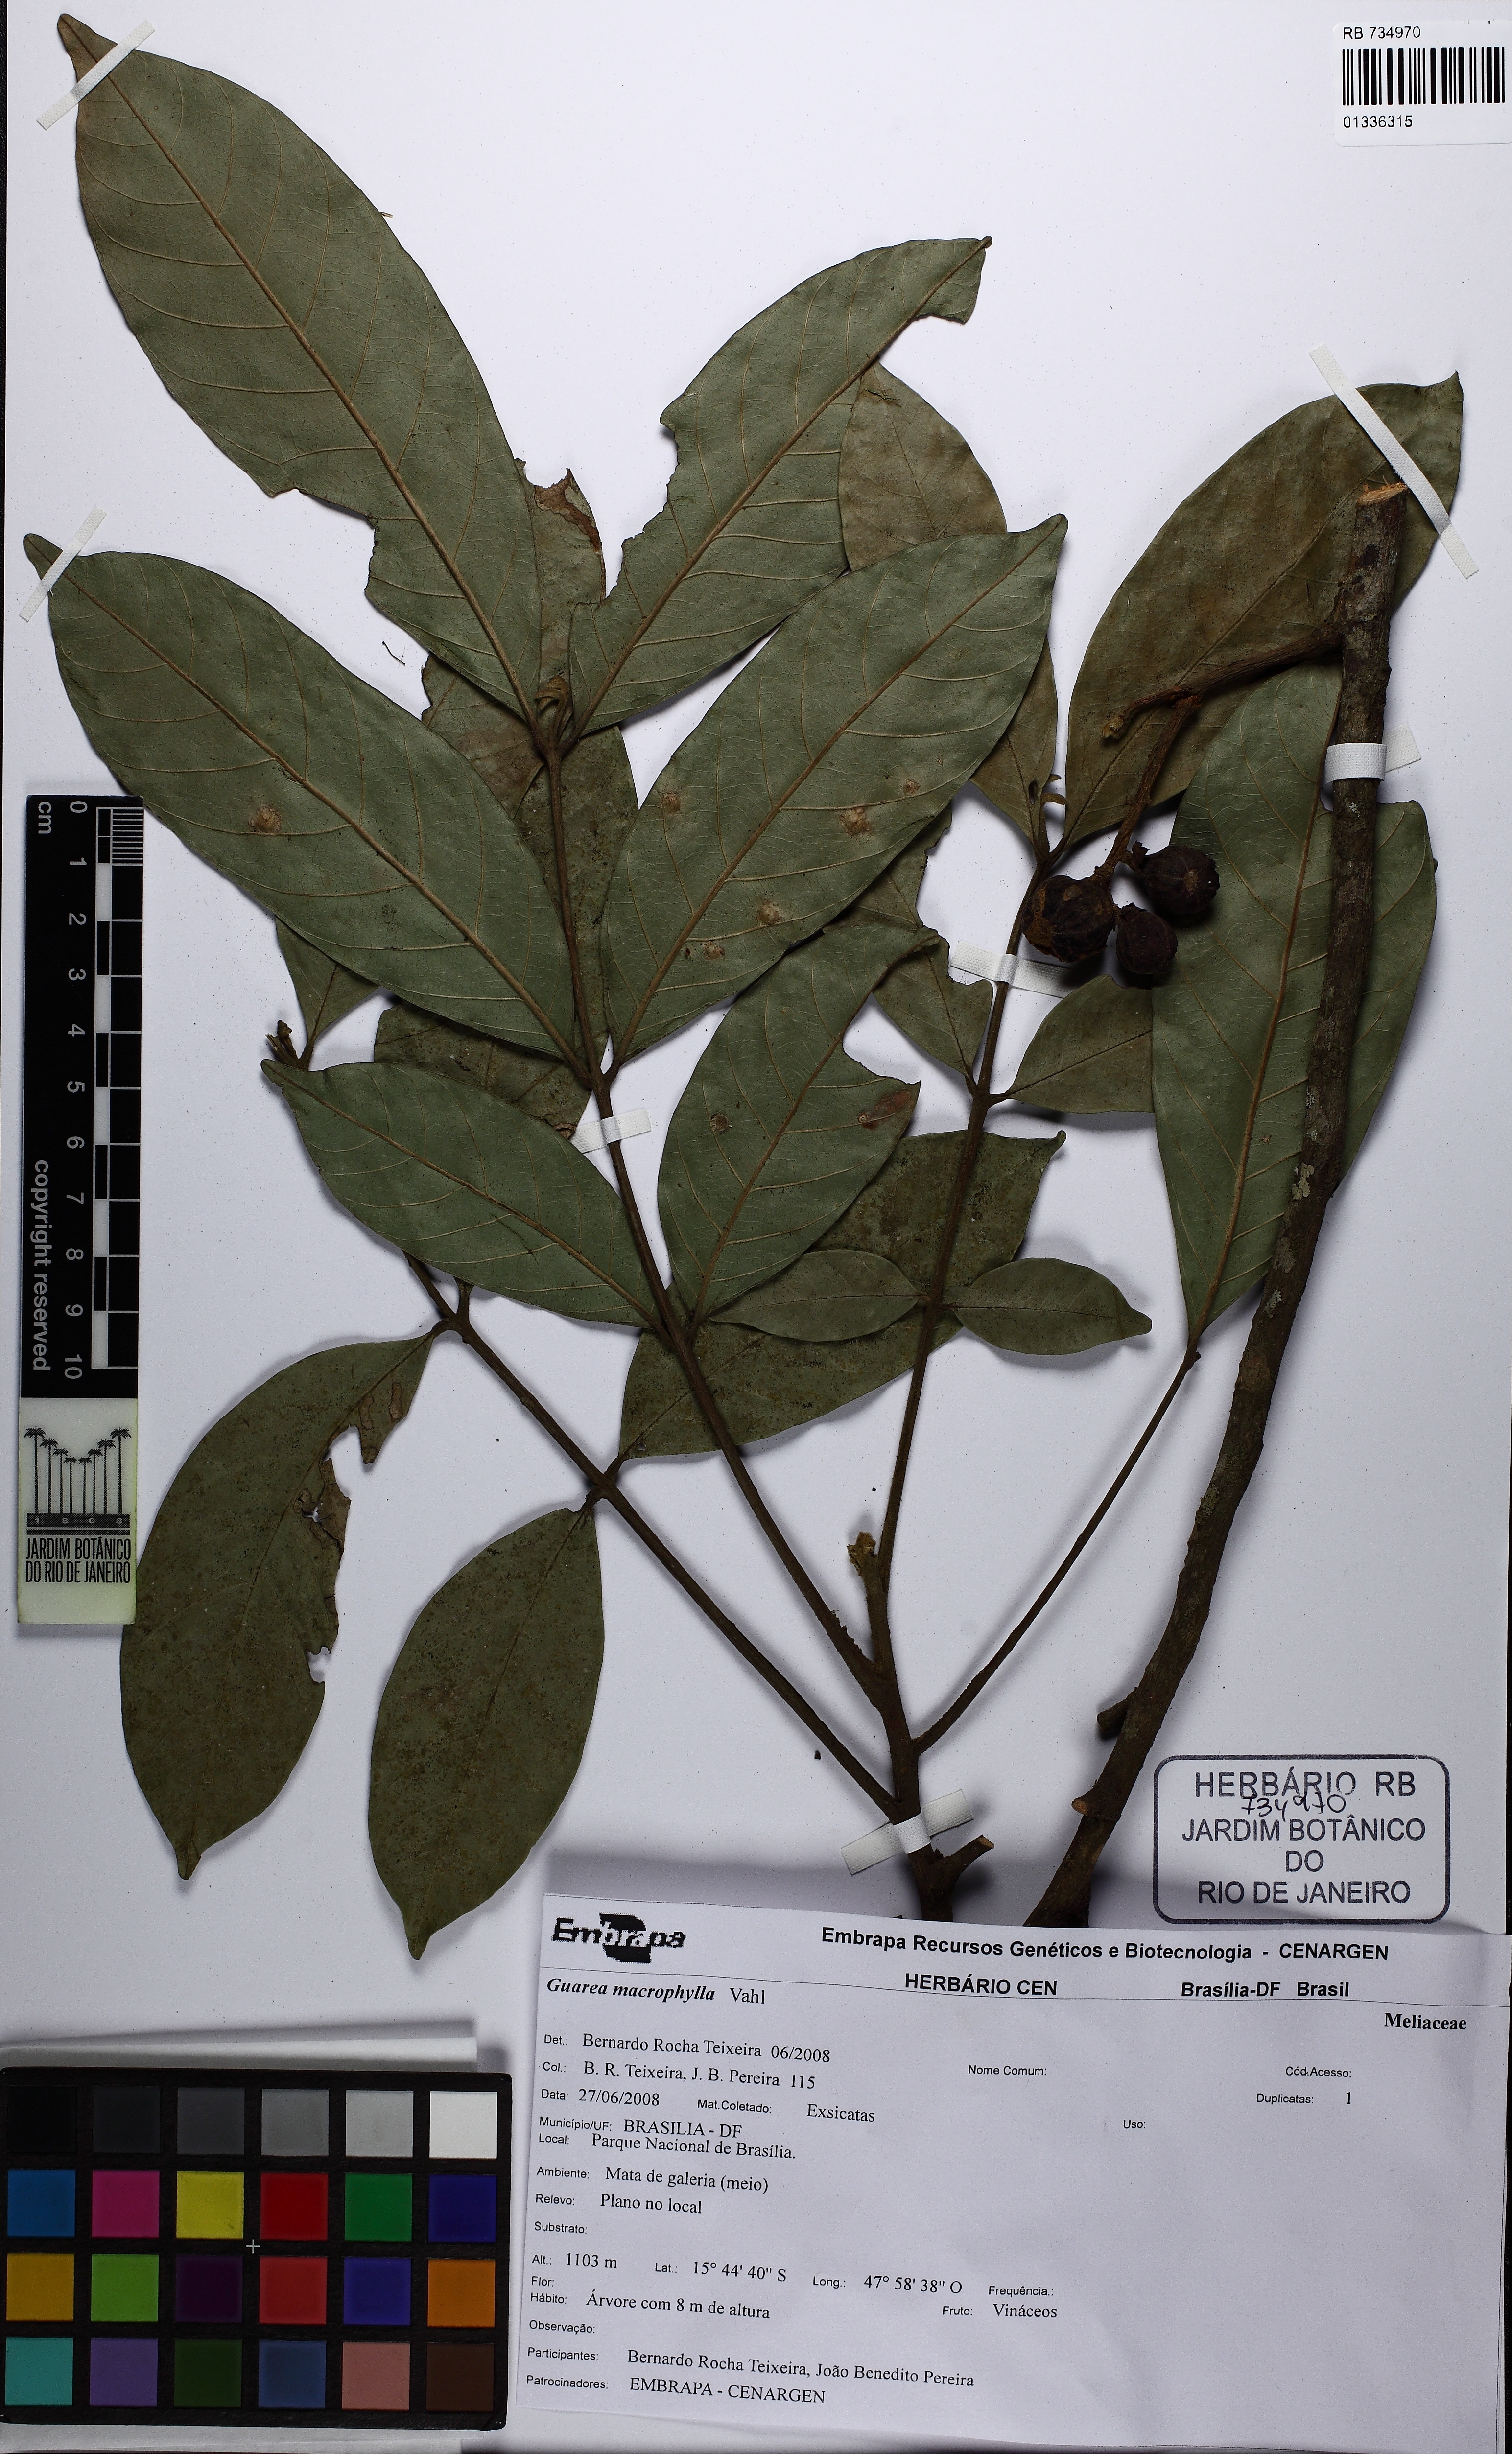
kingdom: Plantae
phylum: Tracheophyta
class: Magnoliopsida
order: Sapindales
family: Meliaceae
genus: Guarea
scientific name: Guarea macrophylla
